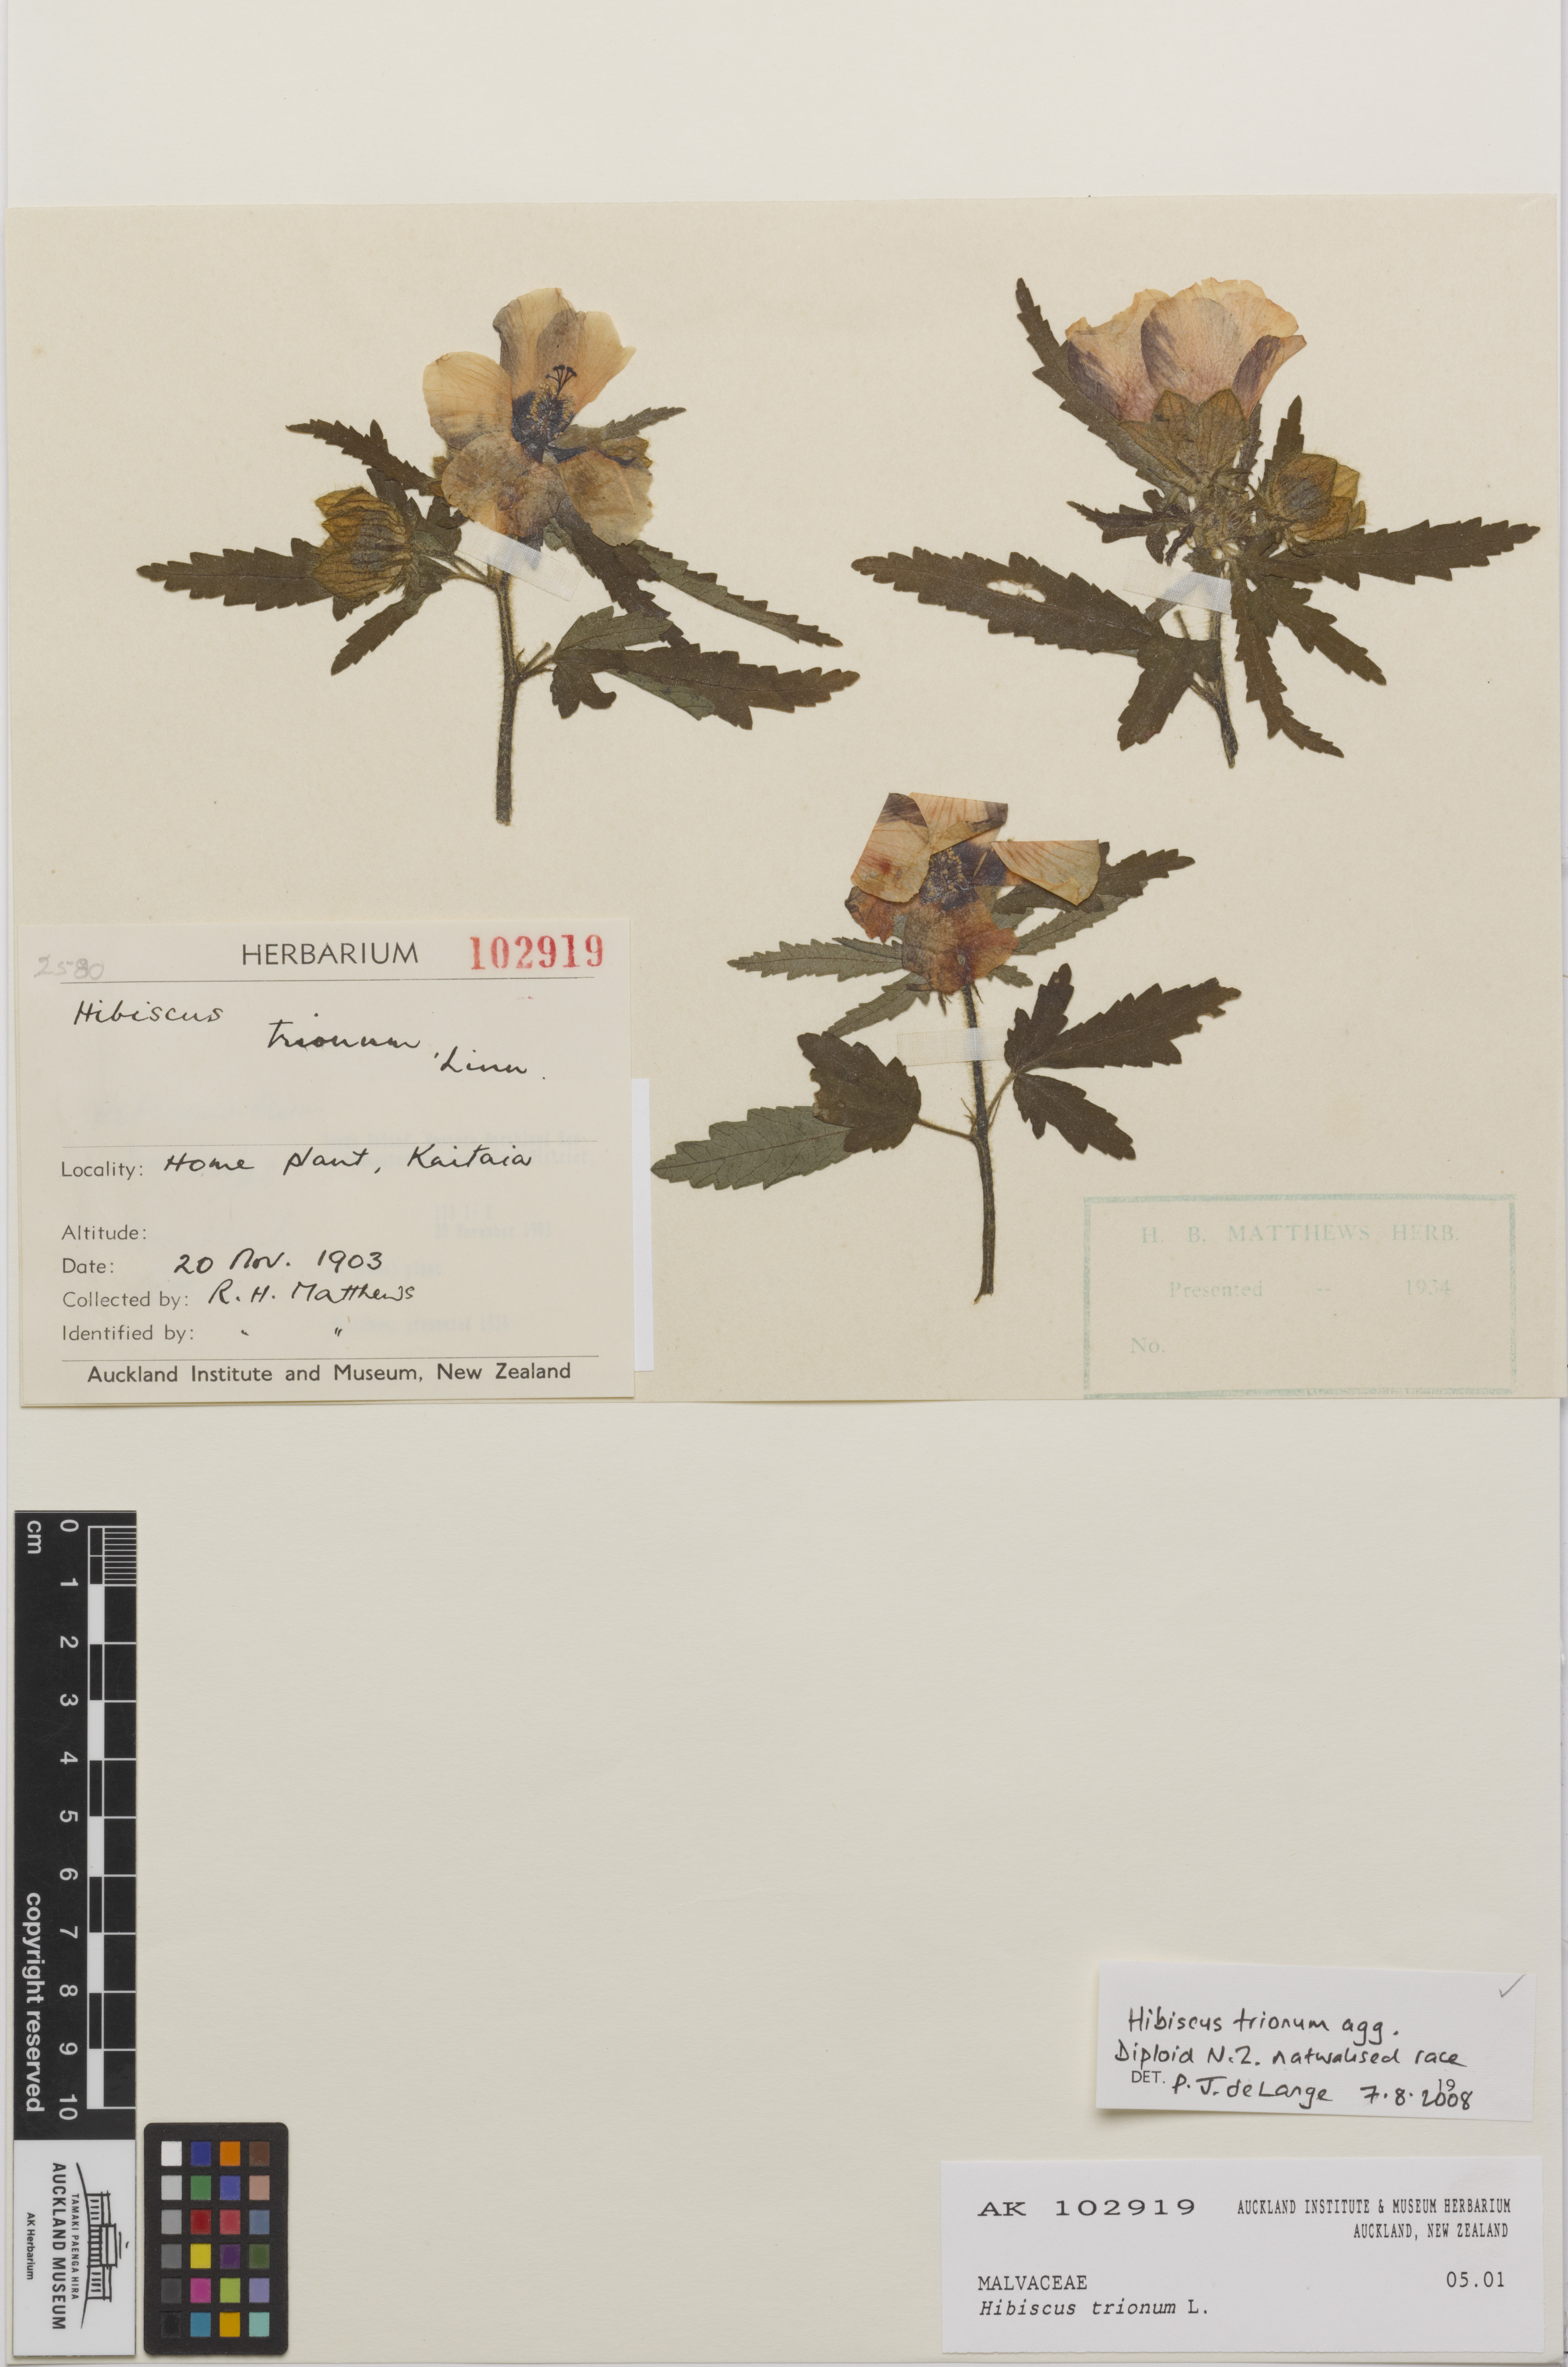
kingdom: Plantae
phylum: Tracheophyta
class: Magnoliopsida
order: Malvales
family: Malvaceae
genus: Hibiscus
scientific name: Hibiscus trionum
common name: Bladder ketmia
